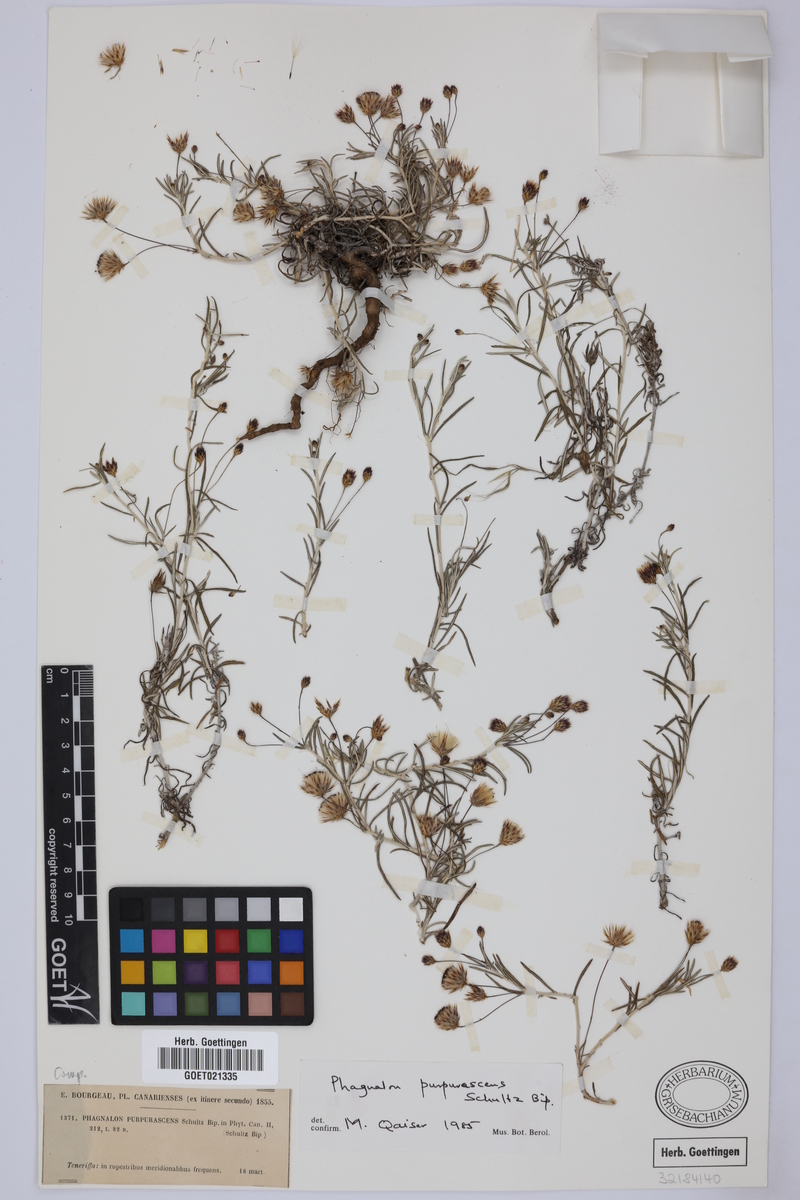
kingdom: Plantae
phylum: Tracheophyta
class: Magnoliopsida
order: Asterales
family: Asteraceae
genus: Phagnalon
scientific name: Phagnalon purpurascens
